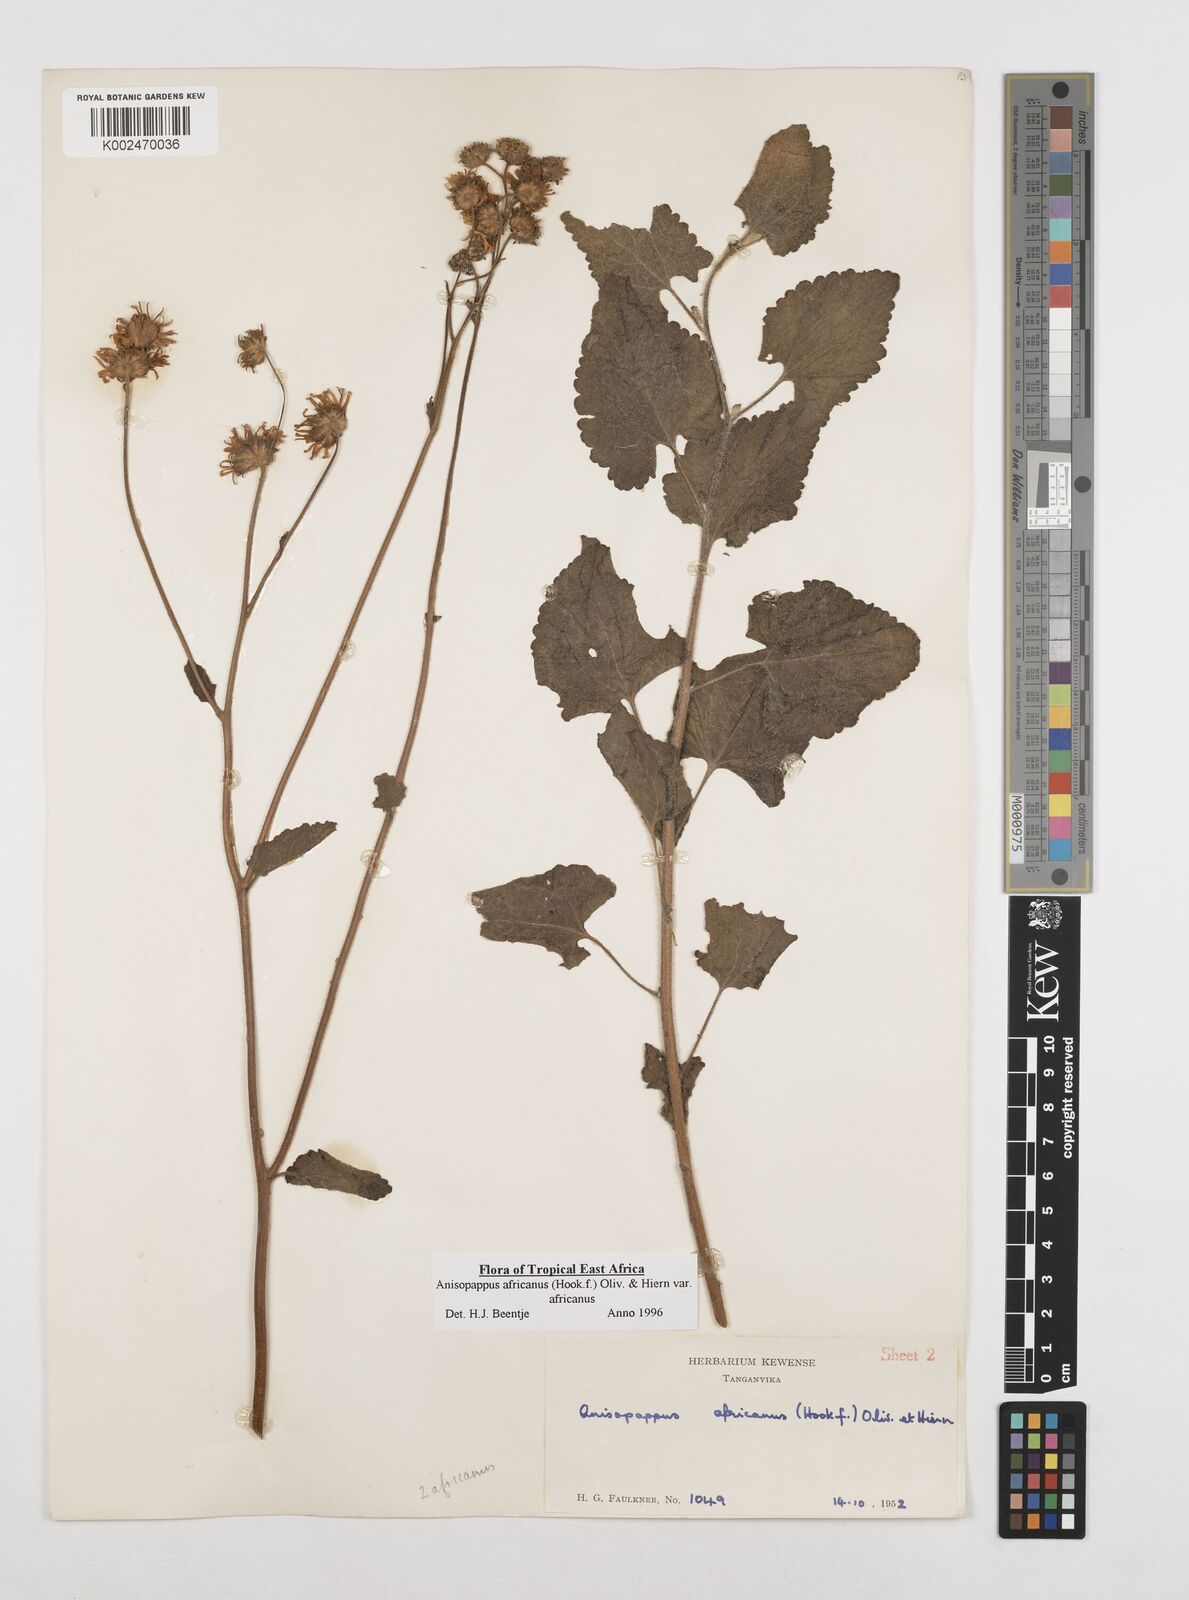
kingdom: Plantae
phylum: Tracheophyta
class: Magnoliopsida
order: Asterales
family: Asteraceae
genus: Anisopappus
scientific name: Anisopappus buchwaldii
